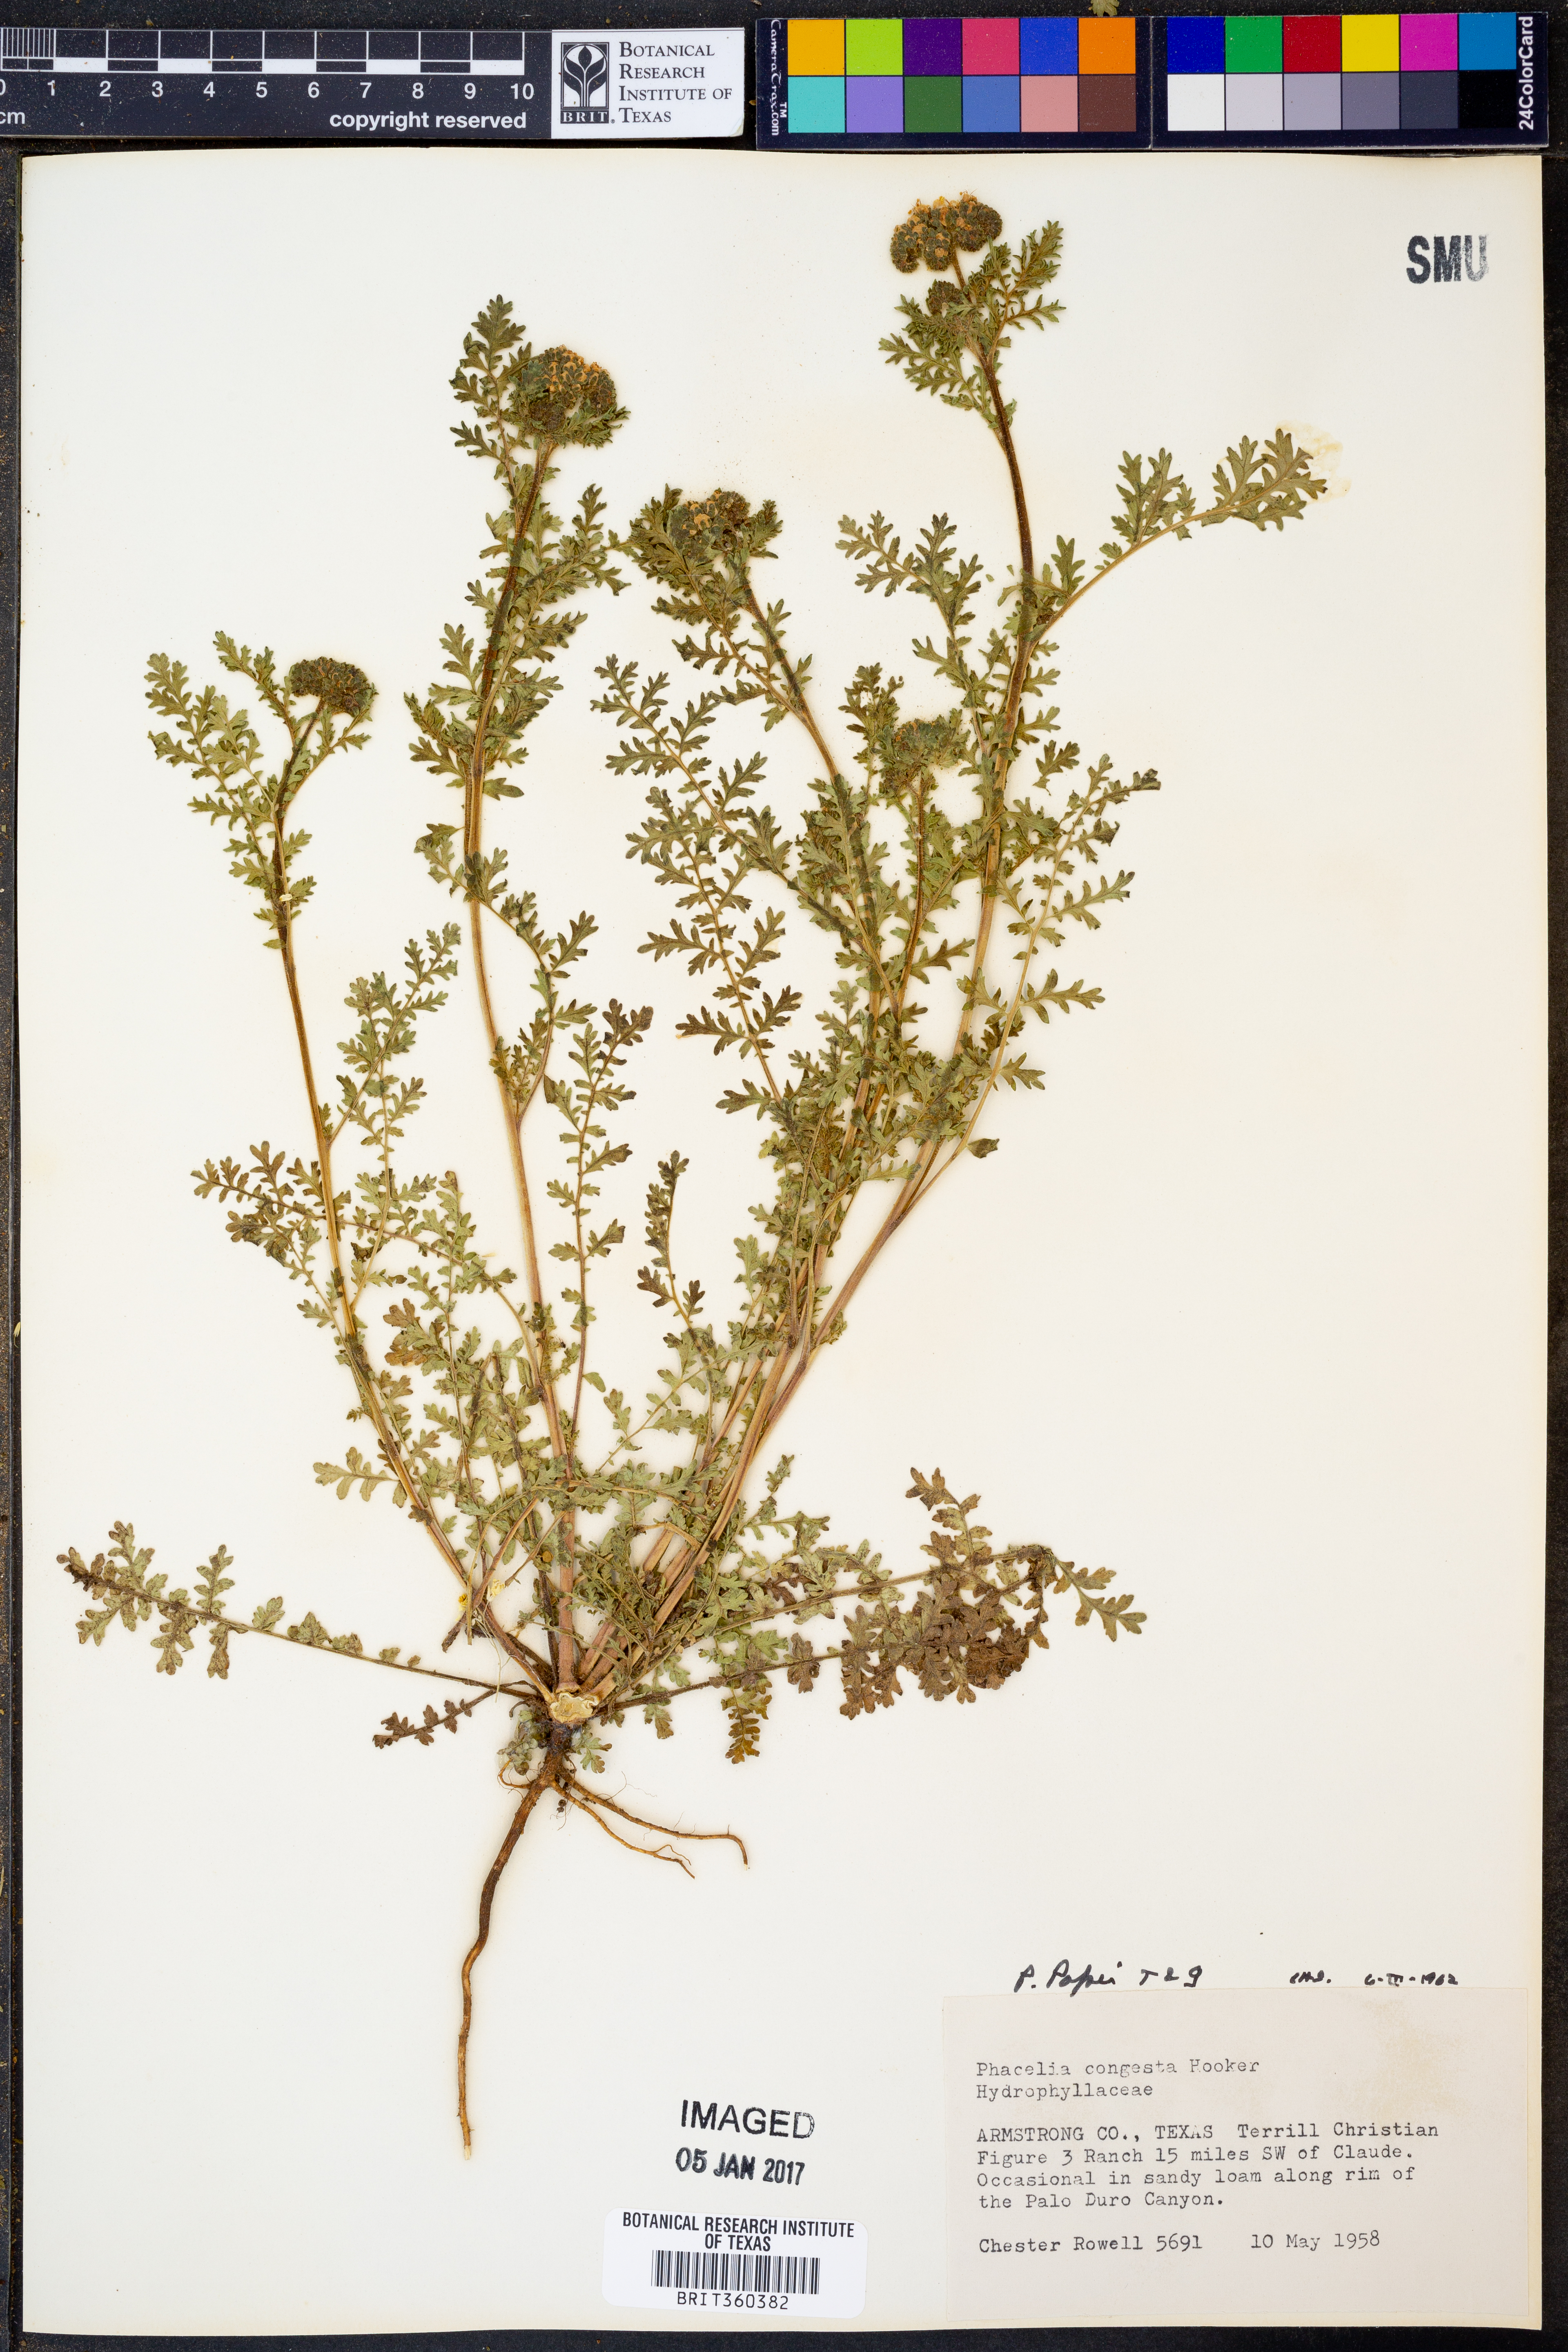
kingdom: Plantae
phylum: Tracheophyta
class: Magnoliopsida
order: Boraginales
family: Hydrophyllaceae
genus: Phacelia
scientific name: Phacelia popei
